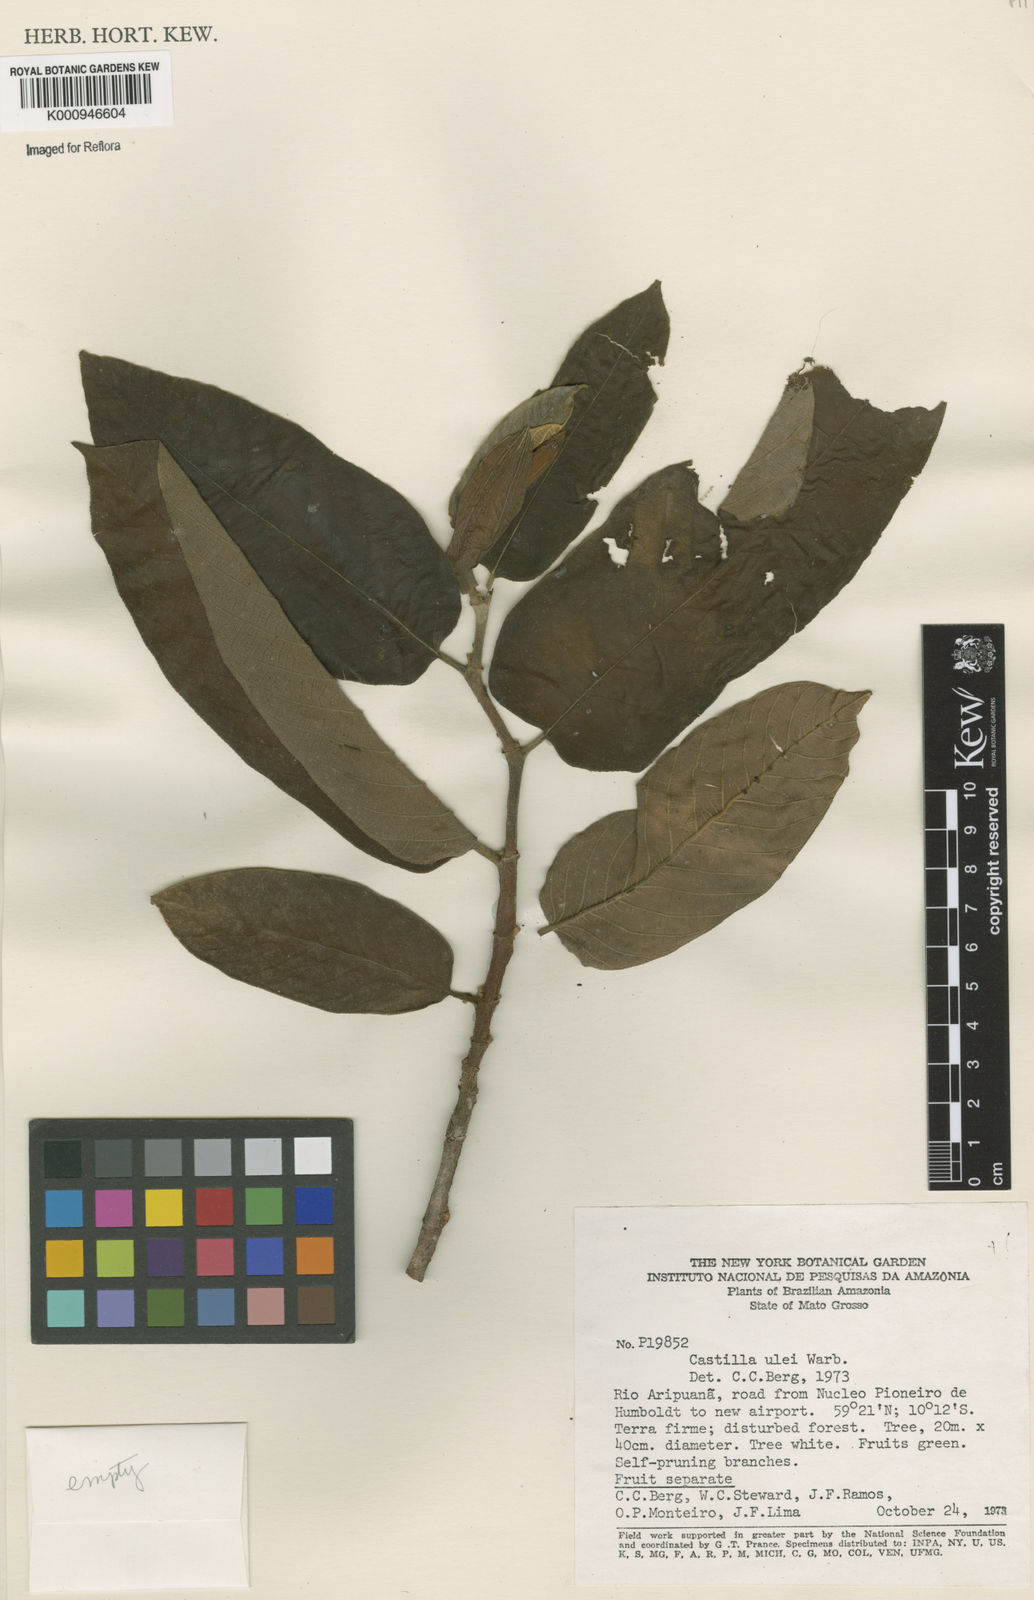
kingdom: Plantae
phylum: Tracheophyta
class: Magnoliopsida
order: Rosales
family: Moraceae
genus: Castilla
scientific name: Castilla ulei
